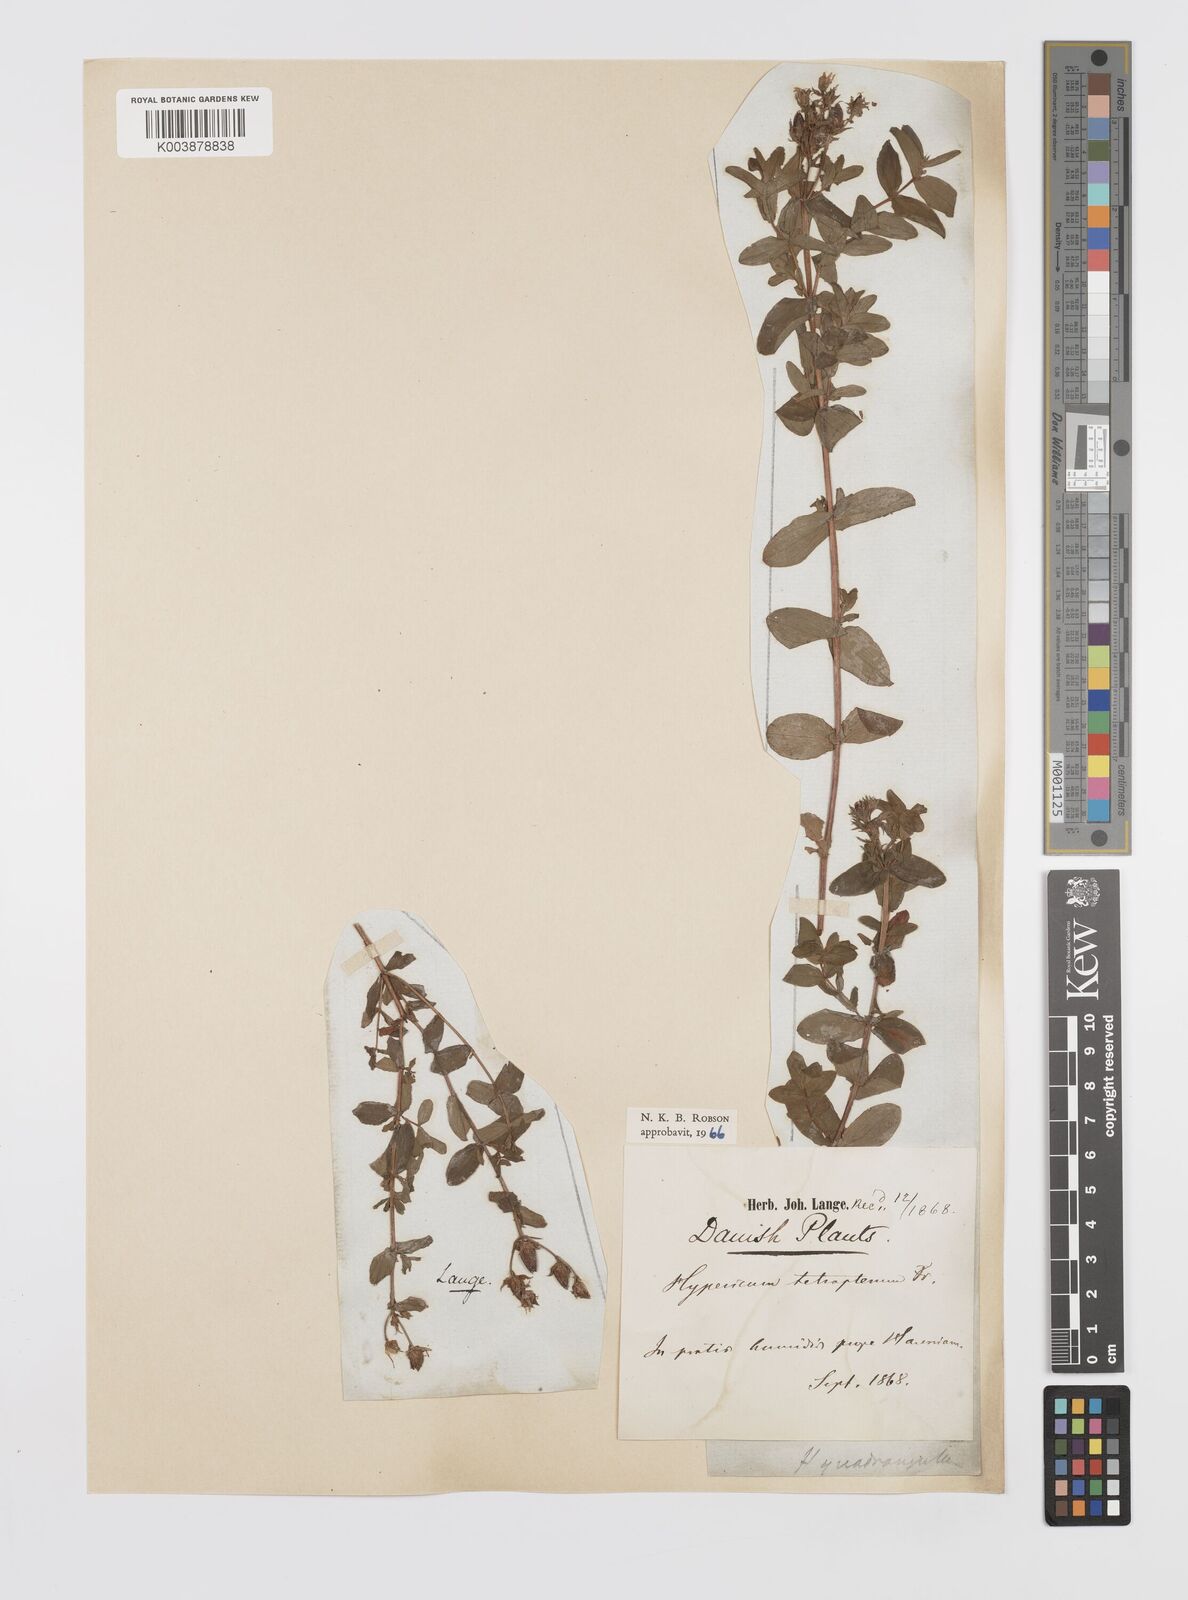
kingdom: Plantae
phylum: Tracheophyta
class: Magnoliopsida
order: Malpighiales
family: Hypericaceae
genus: Hypericum
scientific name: Hypericum tetrapterum
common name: Square-stalked st. john's-wort
